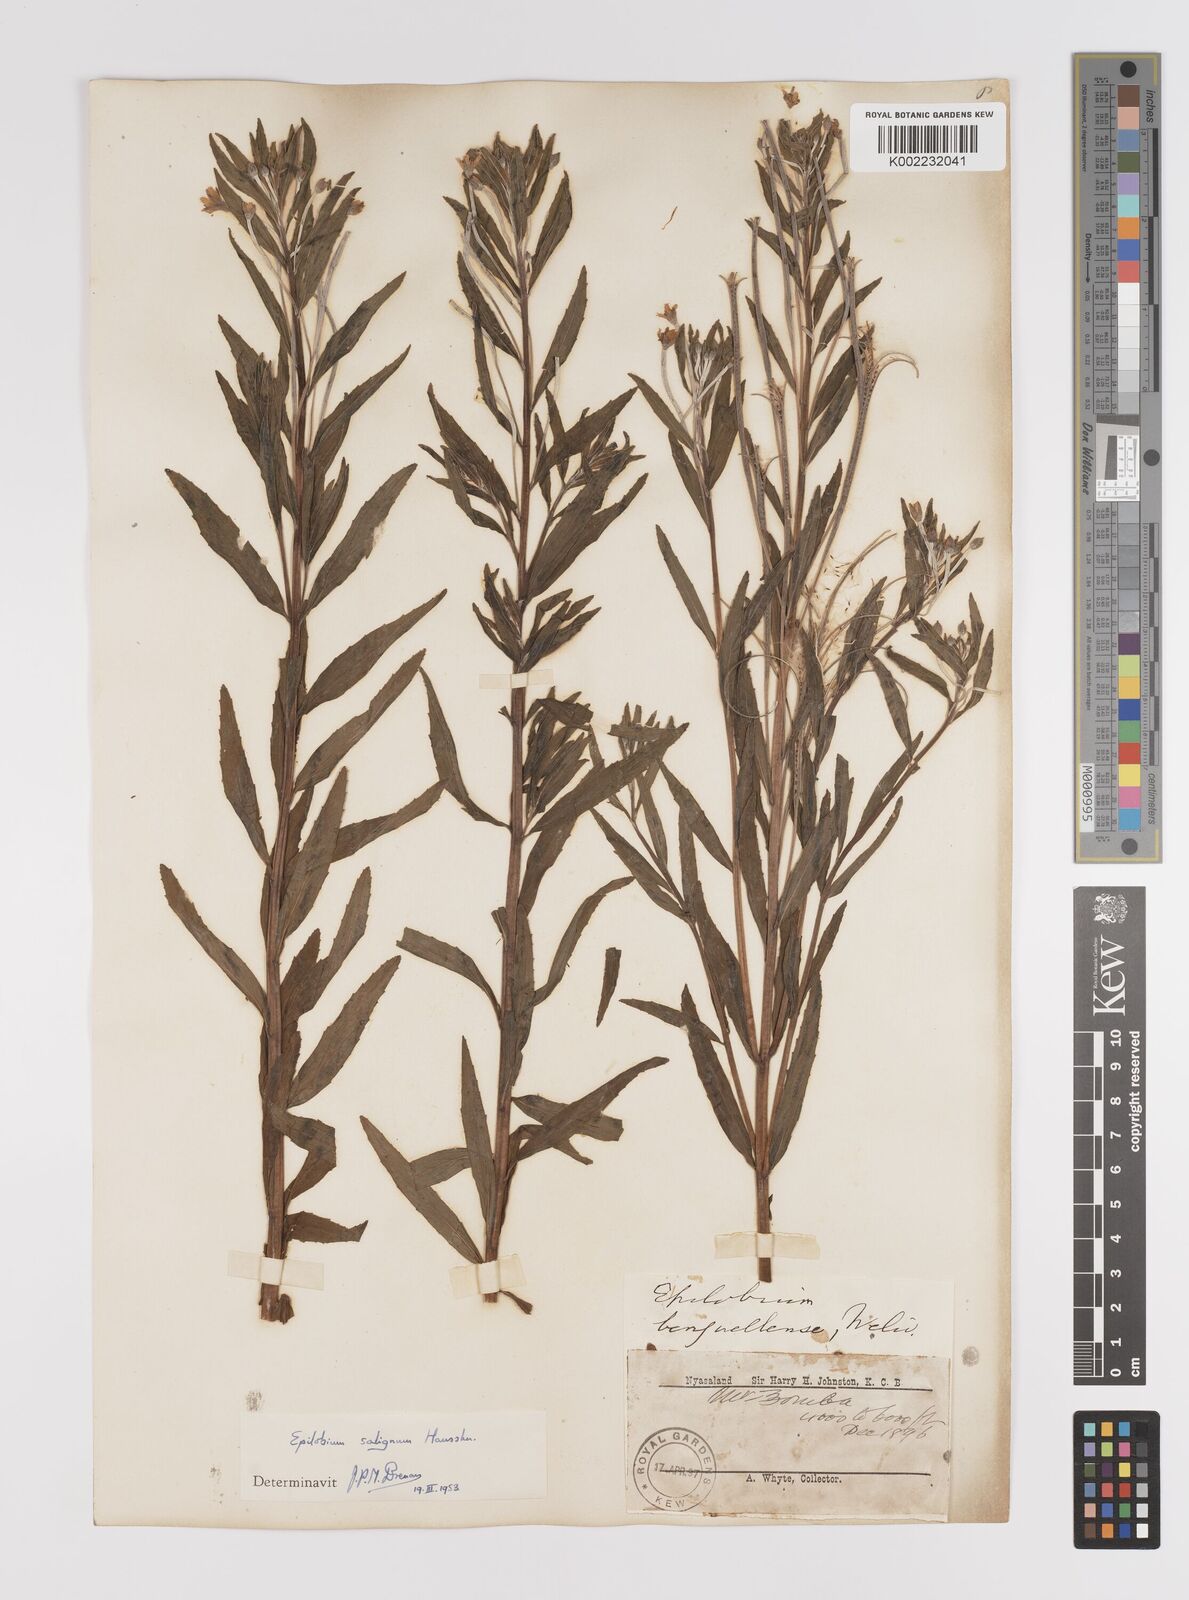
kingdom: Plantae
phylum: Tracheophyta
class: Magnoliopsida
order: Myrtales
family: Onagraceae
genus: Epilobium
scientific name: Epilobium salignum
